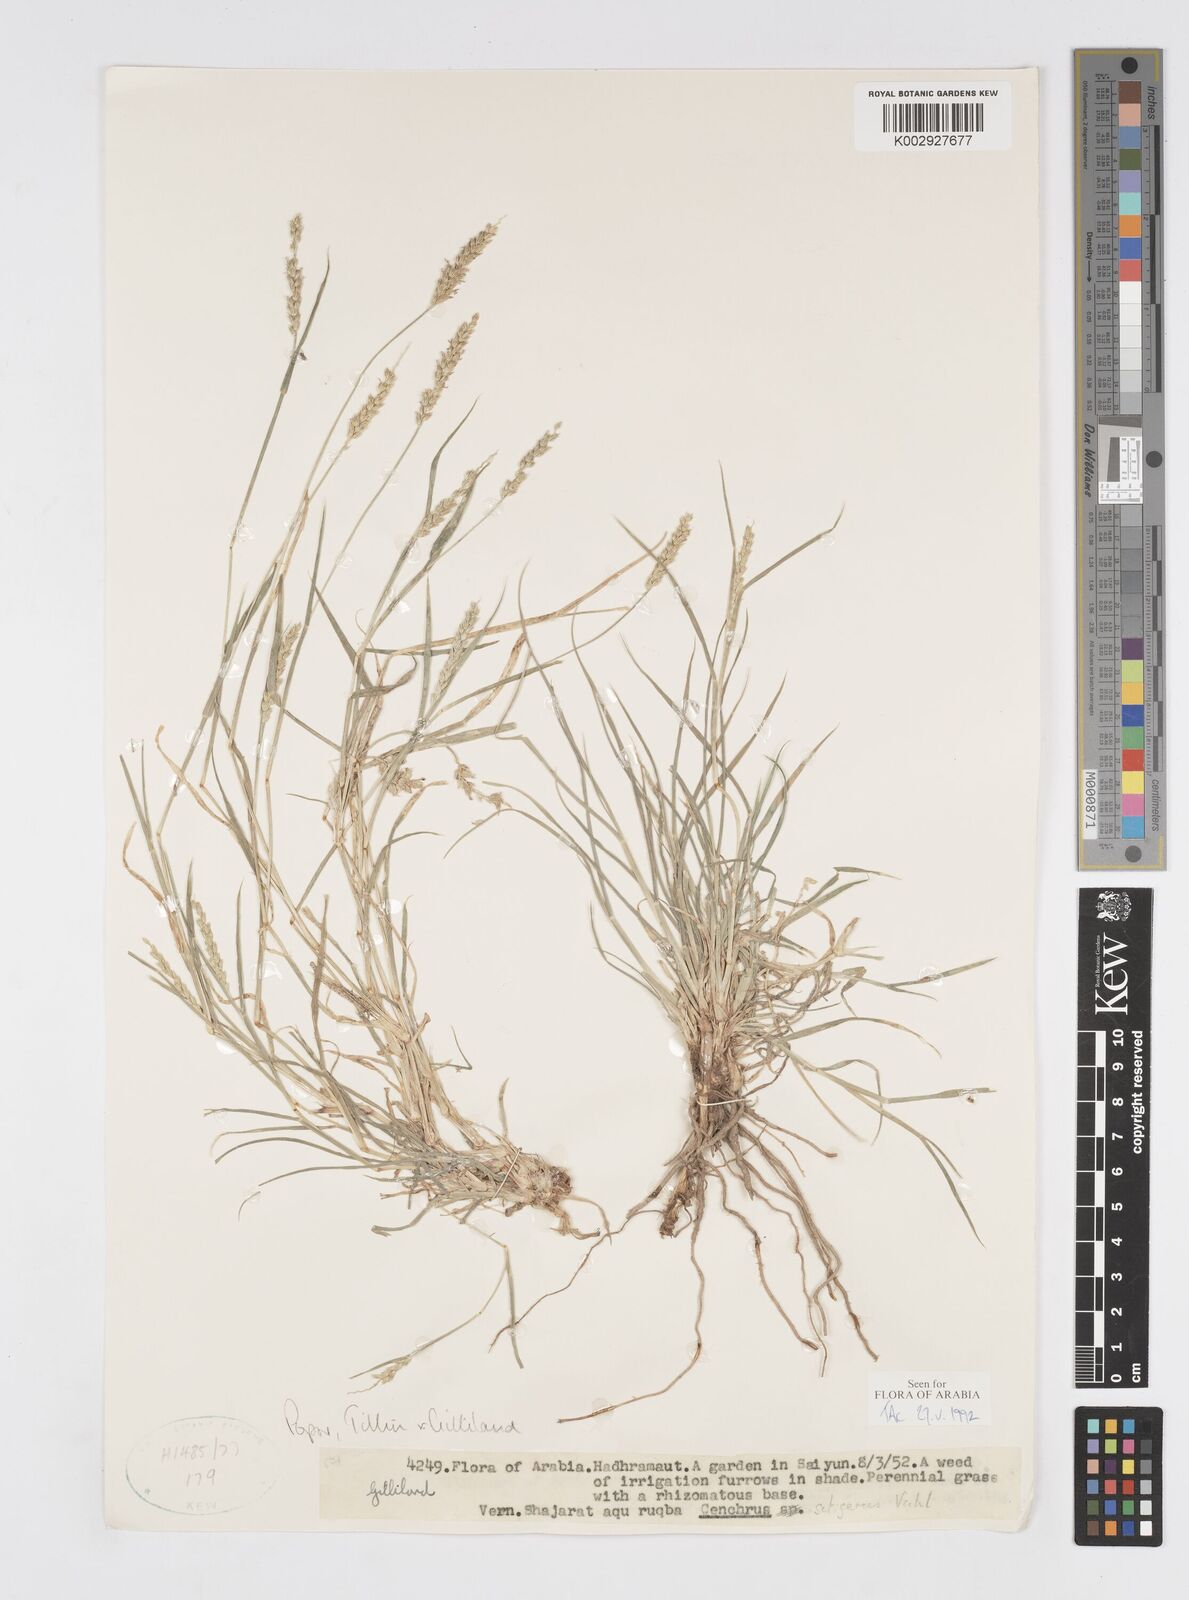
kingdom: Plantae
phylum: Tracheophyta
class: Liliopsida
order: Poales
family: Poaceae
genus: Cenchrus
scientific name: Cenchrus setigerus
